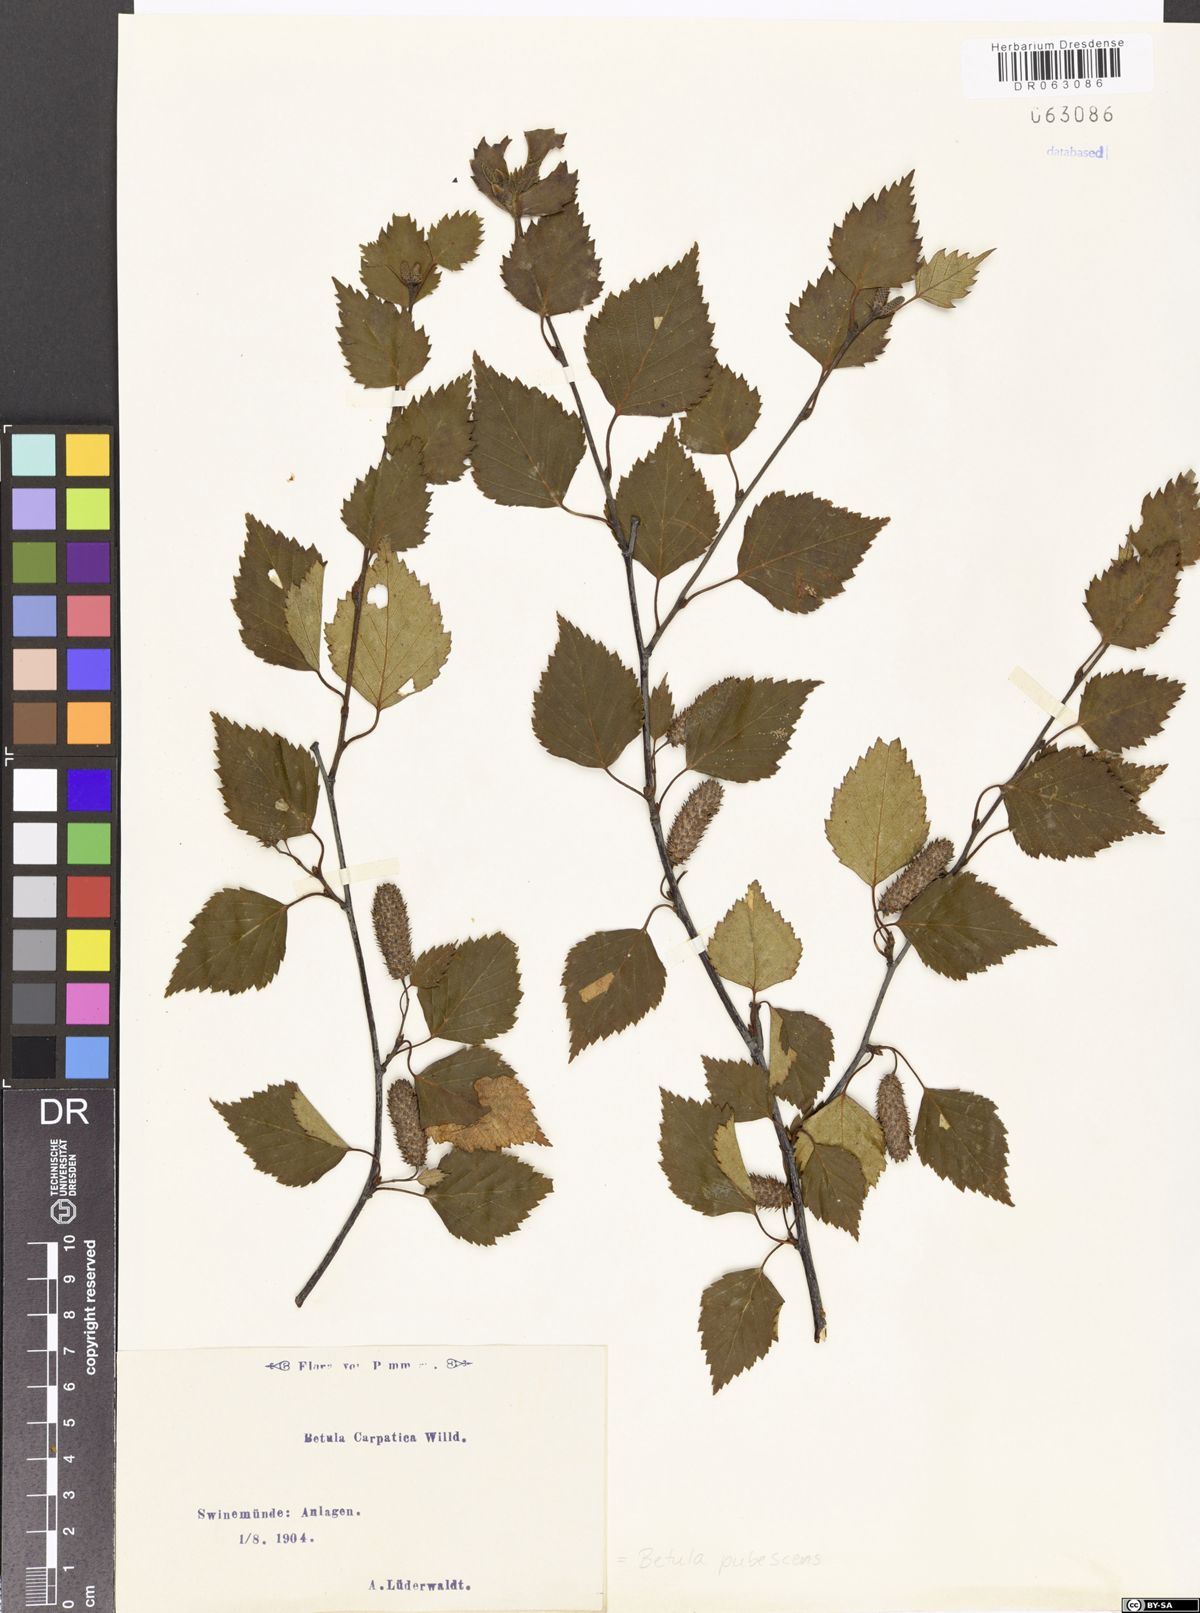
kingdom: Plantae
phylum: Tracheophyta
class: Magnoliopsida
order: Fagales
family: Betulaceae
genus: Betula
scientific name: Betula pubescens
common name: Downy birch
